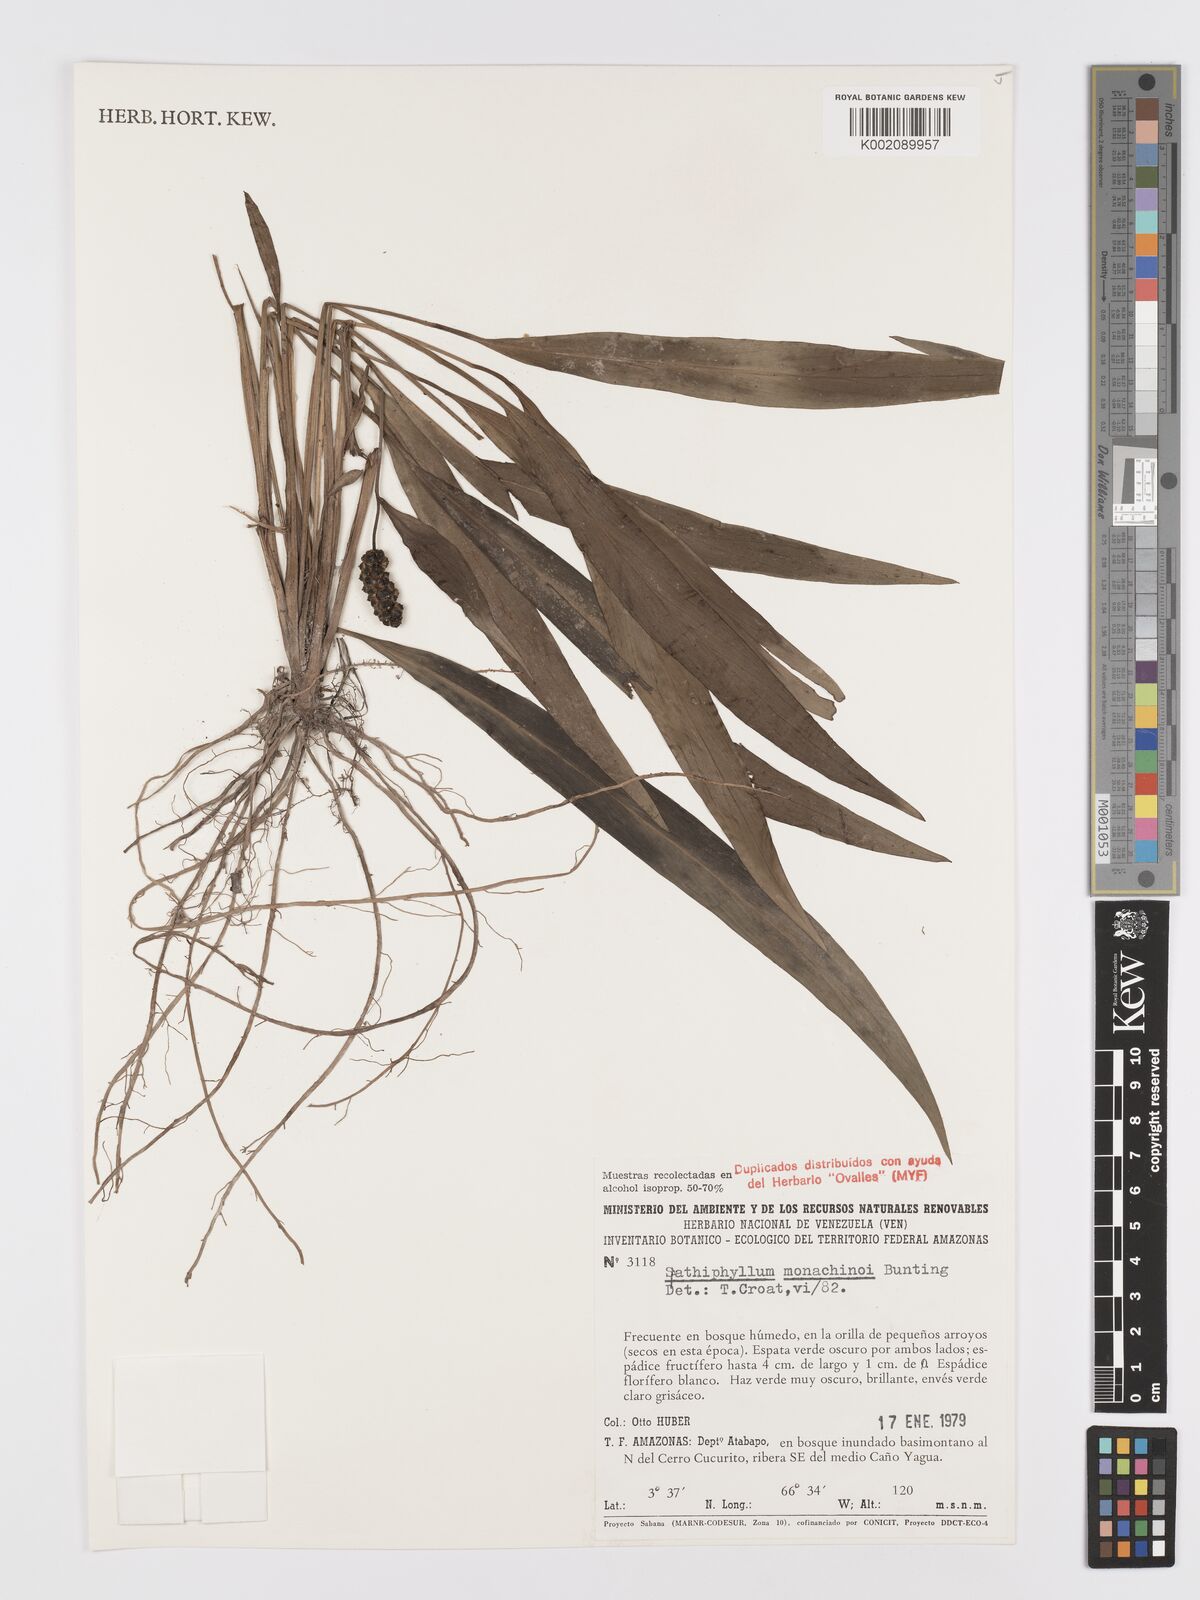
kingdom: Plantae
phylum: Tracheophyta
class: Liliopsida
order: Alismatales
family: Araceae
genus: Spathiphyllum
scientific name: Spathiphyllum monachinoi
